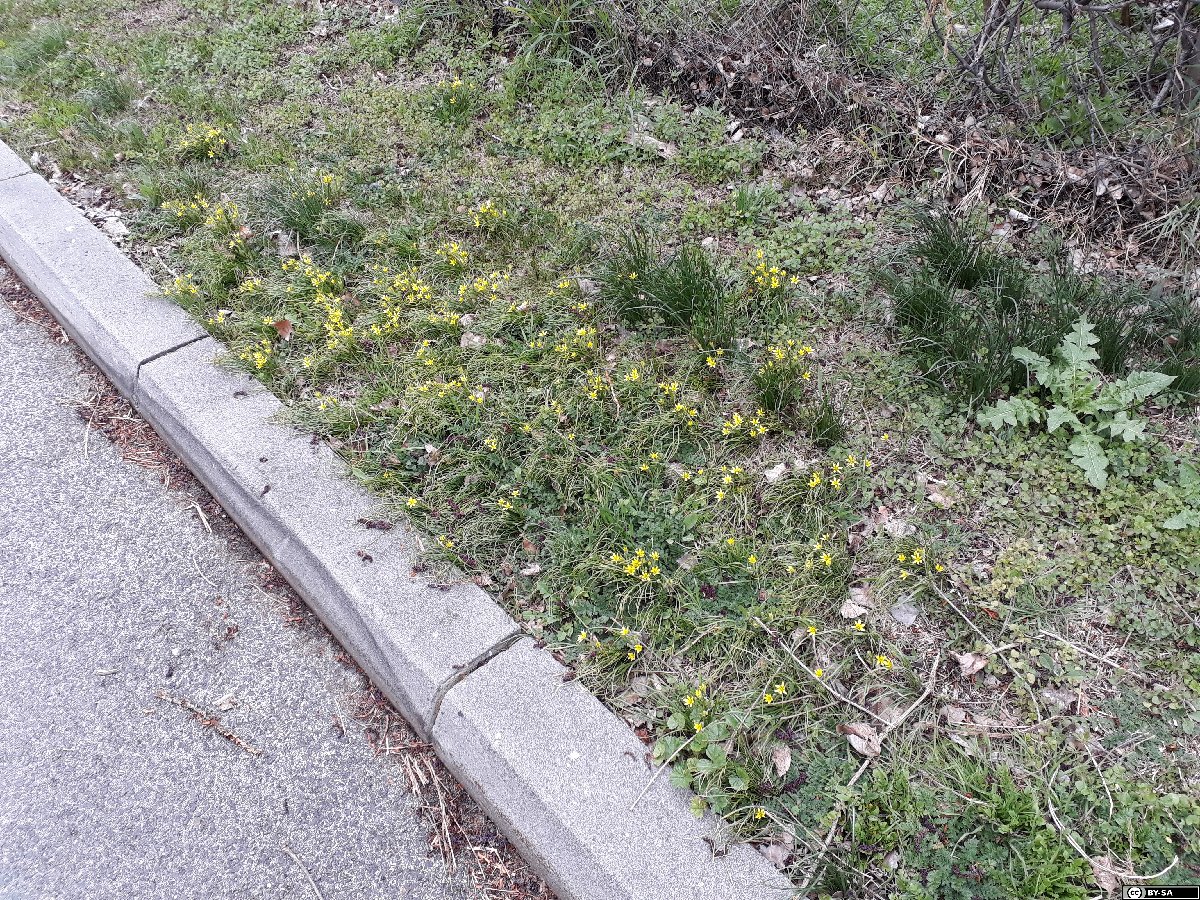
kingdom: Plantae
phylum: Tracheophyta
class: Liliopsida
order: Liliales
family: Liliaceae
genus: Gagea
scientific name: Gagea villosa
